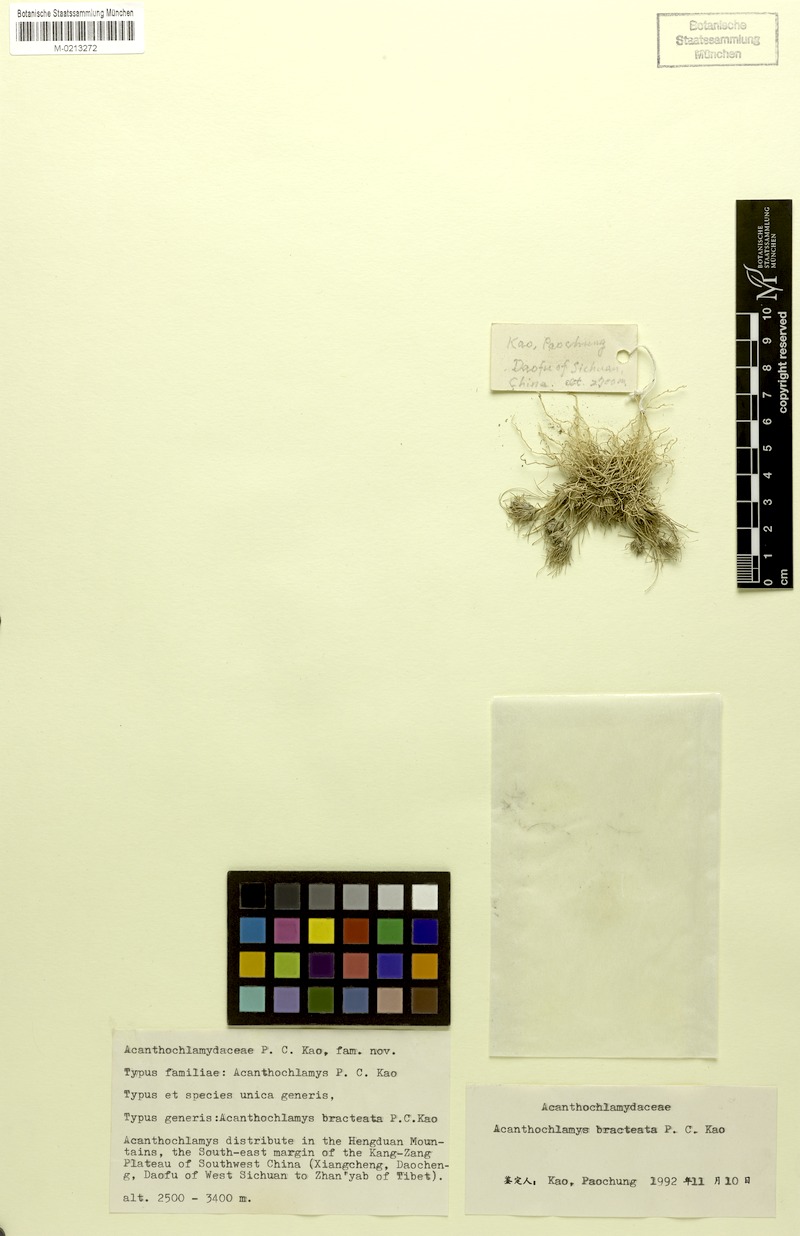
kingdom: Plantae
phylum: Tracheophyta
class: Liliopsida
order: Pandanales
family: Velloziaceae
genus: Acanthochlamys
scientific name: Acanthochlamys bracteata
